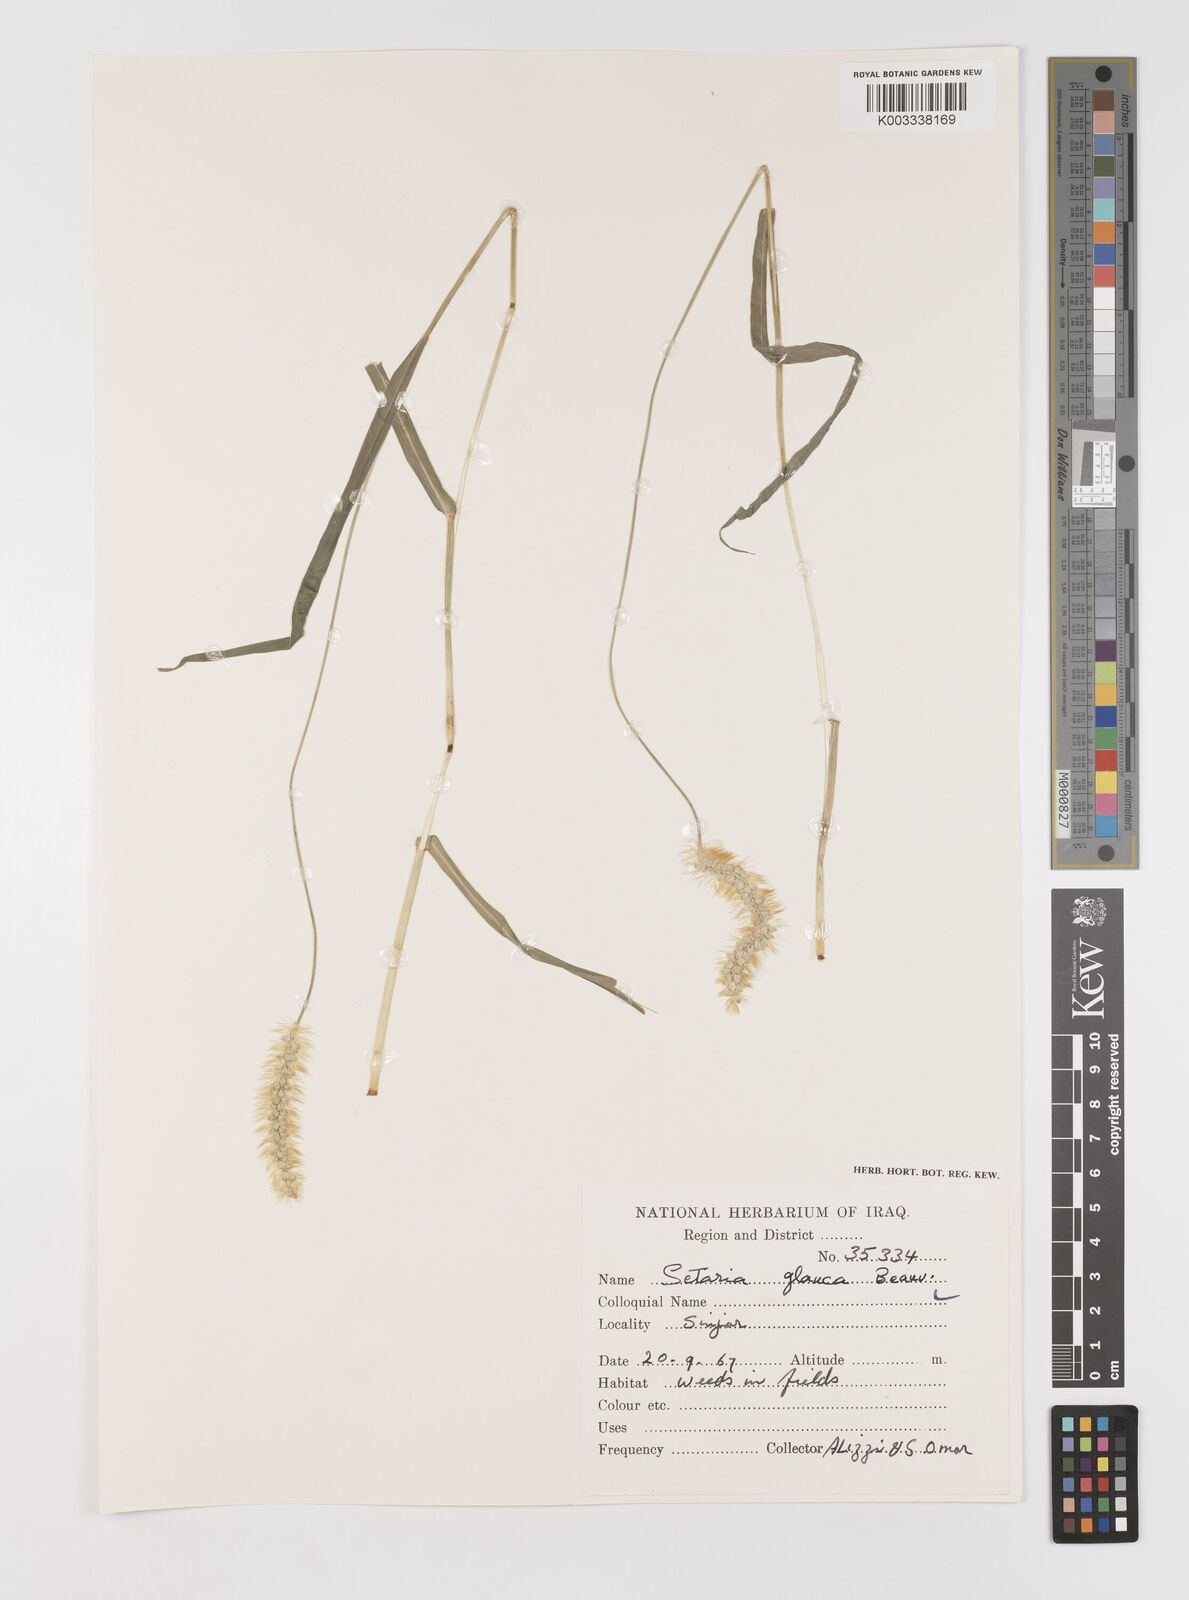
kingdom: Plantae
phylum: Tracheophyta
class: Liliopsida
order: Poales
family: Poaceae
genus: Setaria
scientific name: Setaria pumila
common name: Yellow bristle-grass
